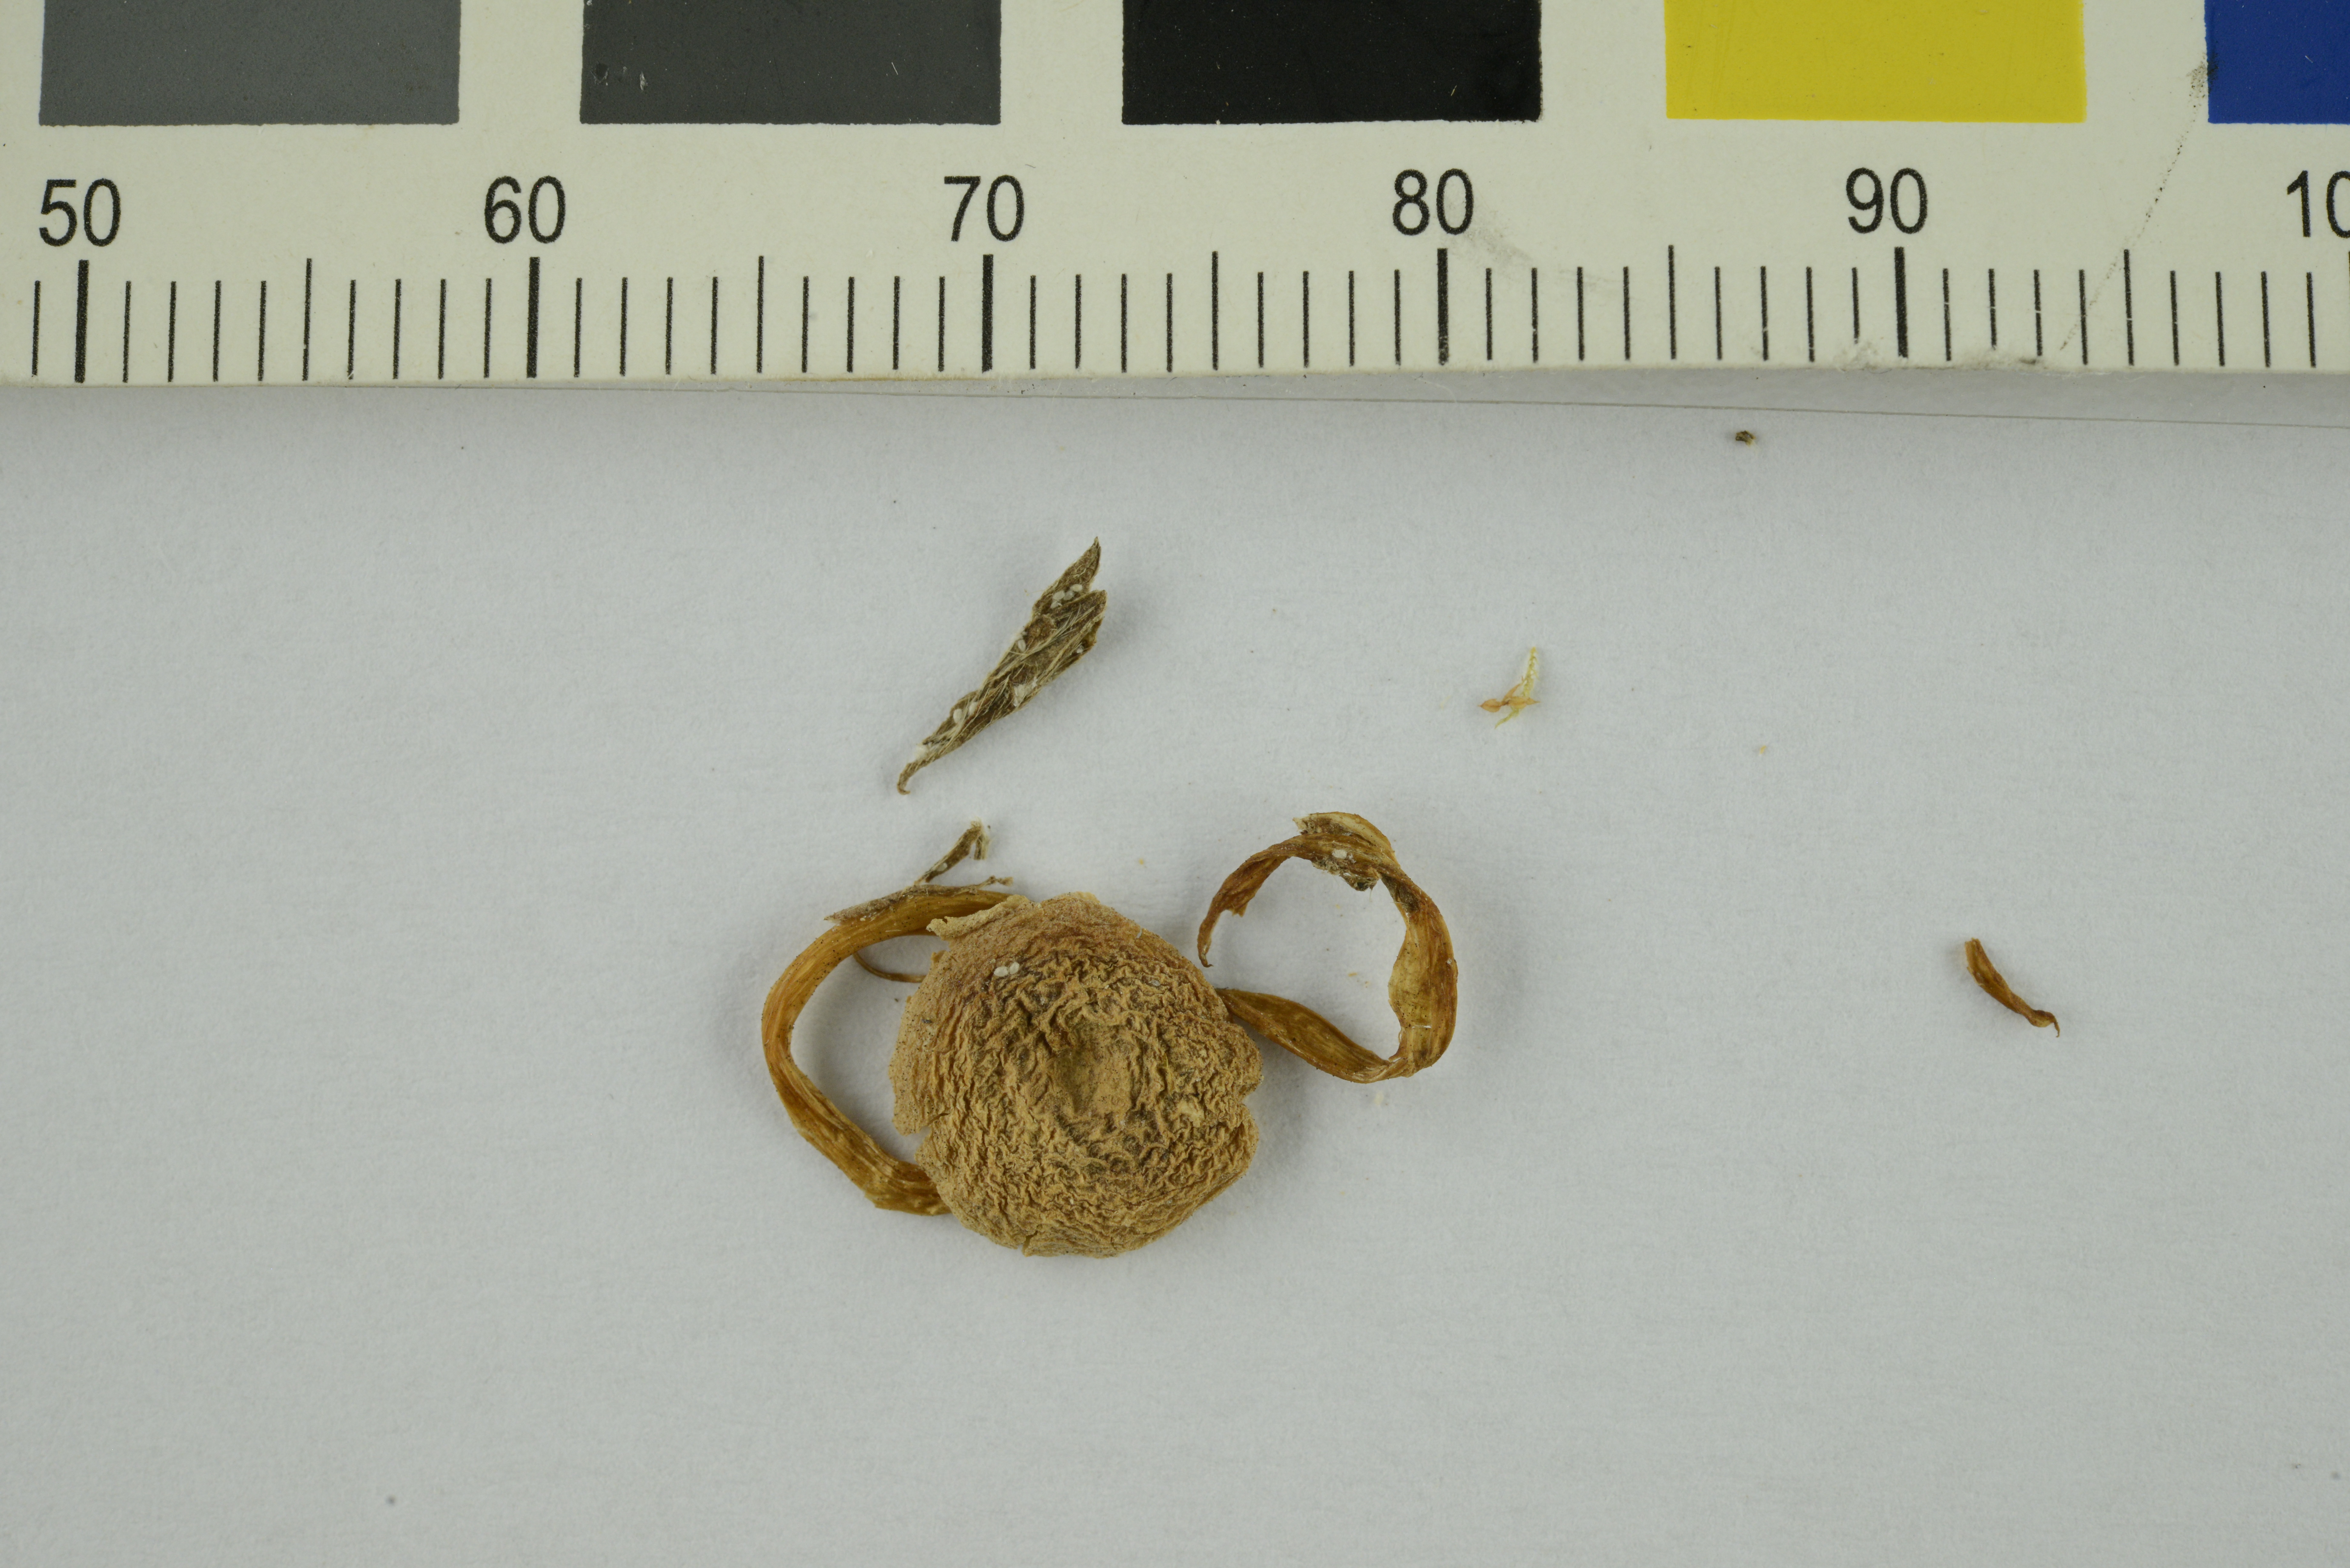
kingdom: Fungi
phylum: Basidiomycota
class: Agaricomycetes
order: Agaricales
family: Cortinariaceae
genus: Cortinarius
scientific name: Cortinarius
